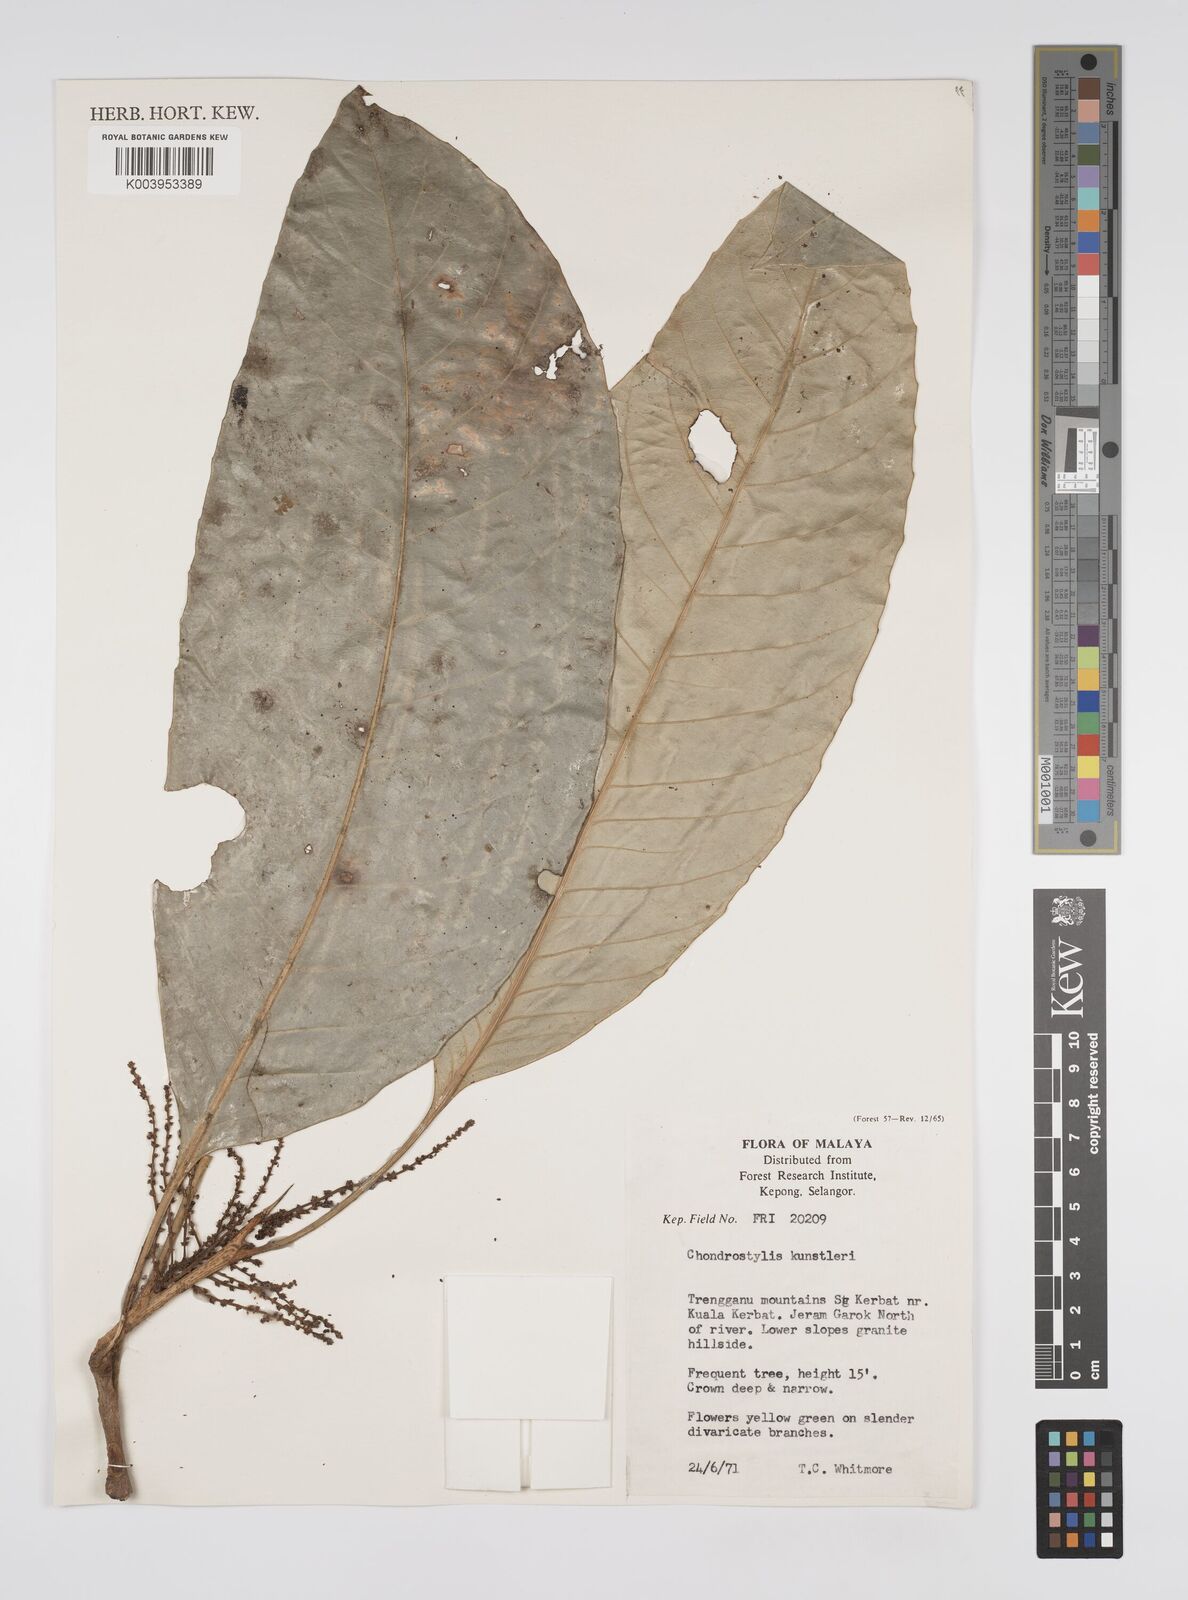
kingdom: Plantae
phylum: Tracheophyta
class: Magnoliopsida
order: Malpighiales
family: Euphorbiaceae
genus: Chondrostylis
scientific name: Chondrostylis kunstleri
